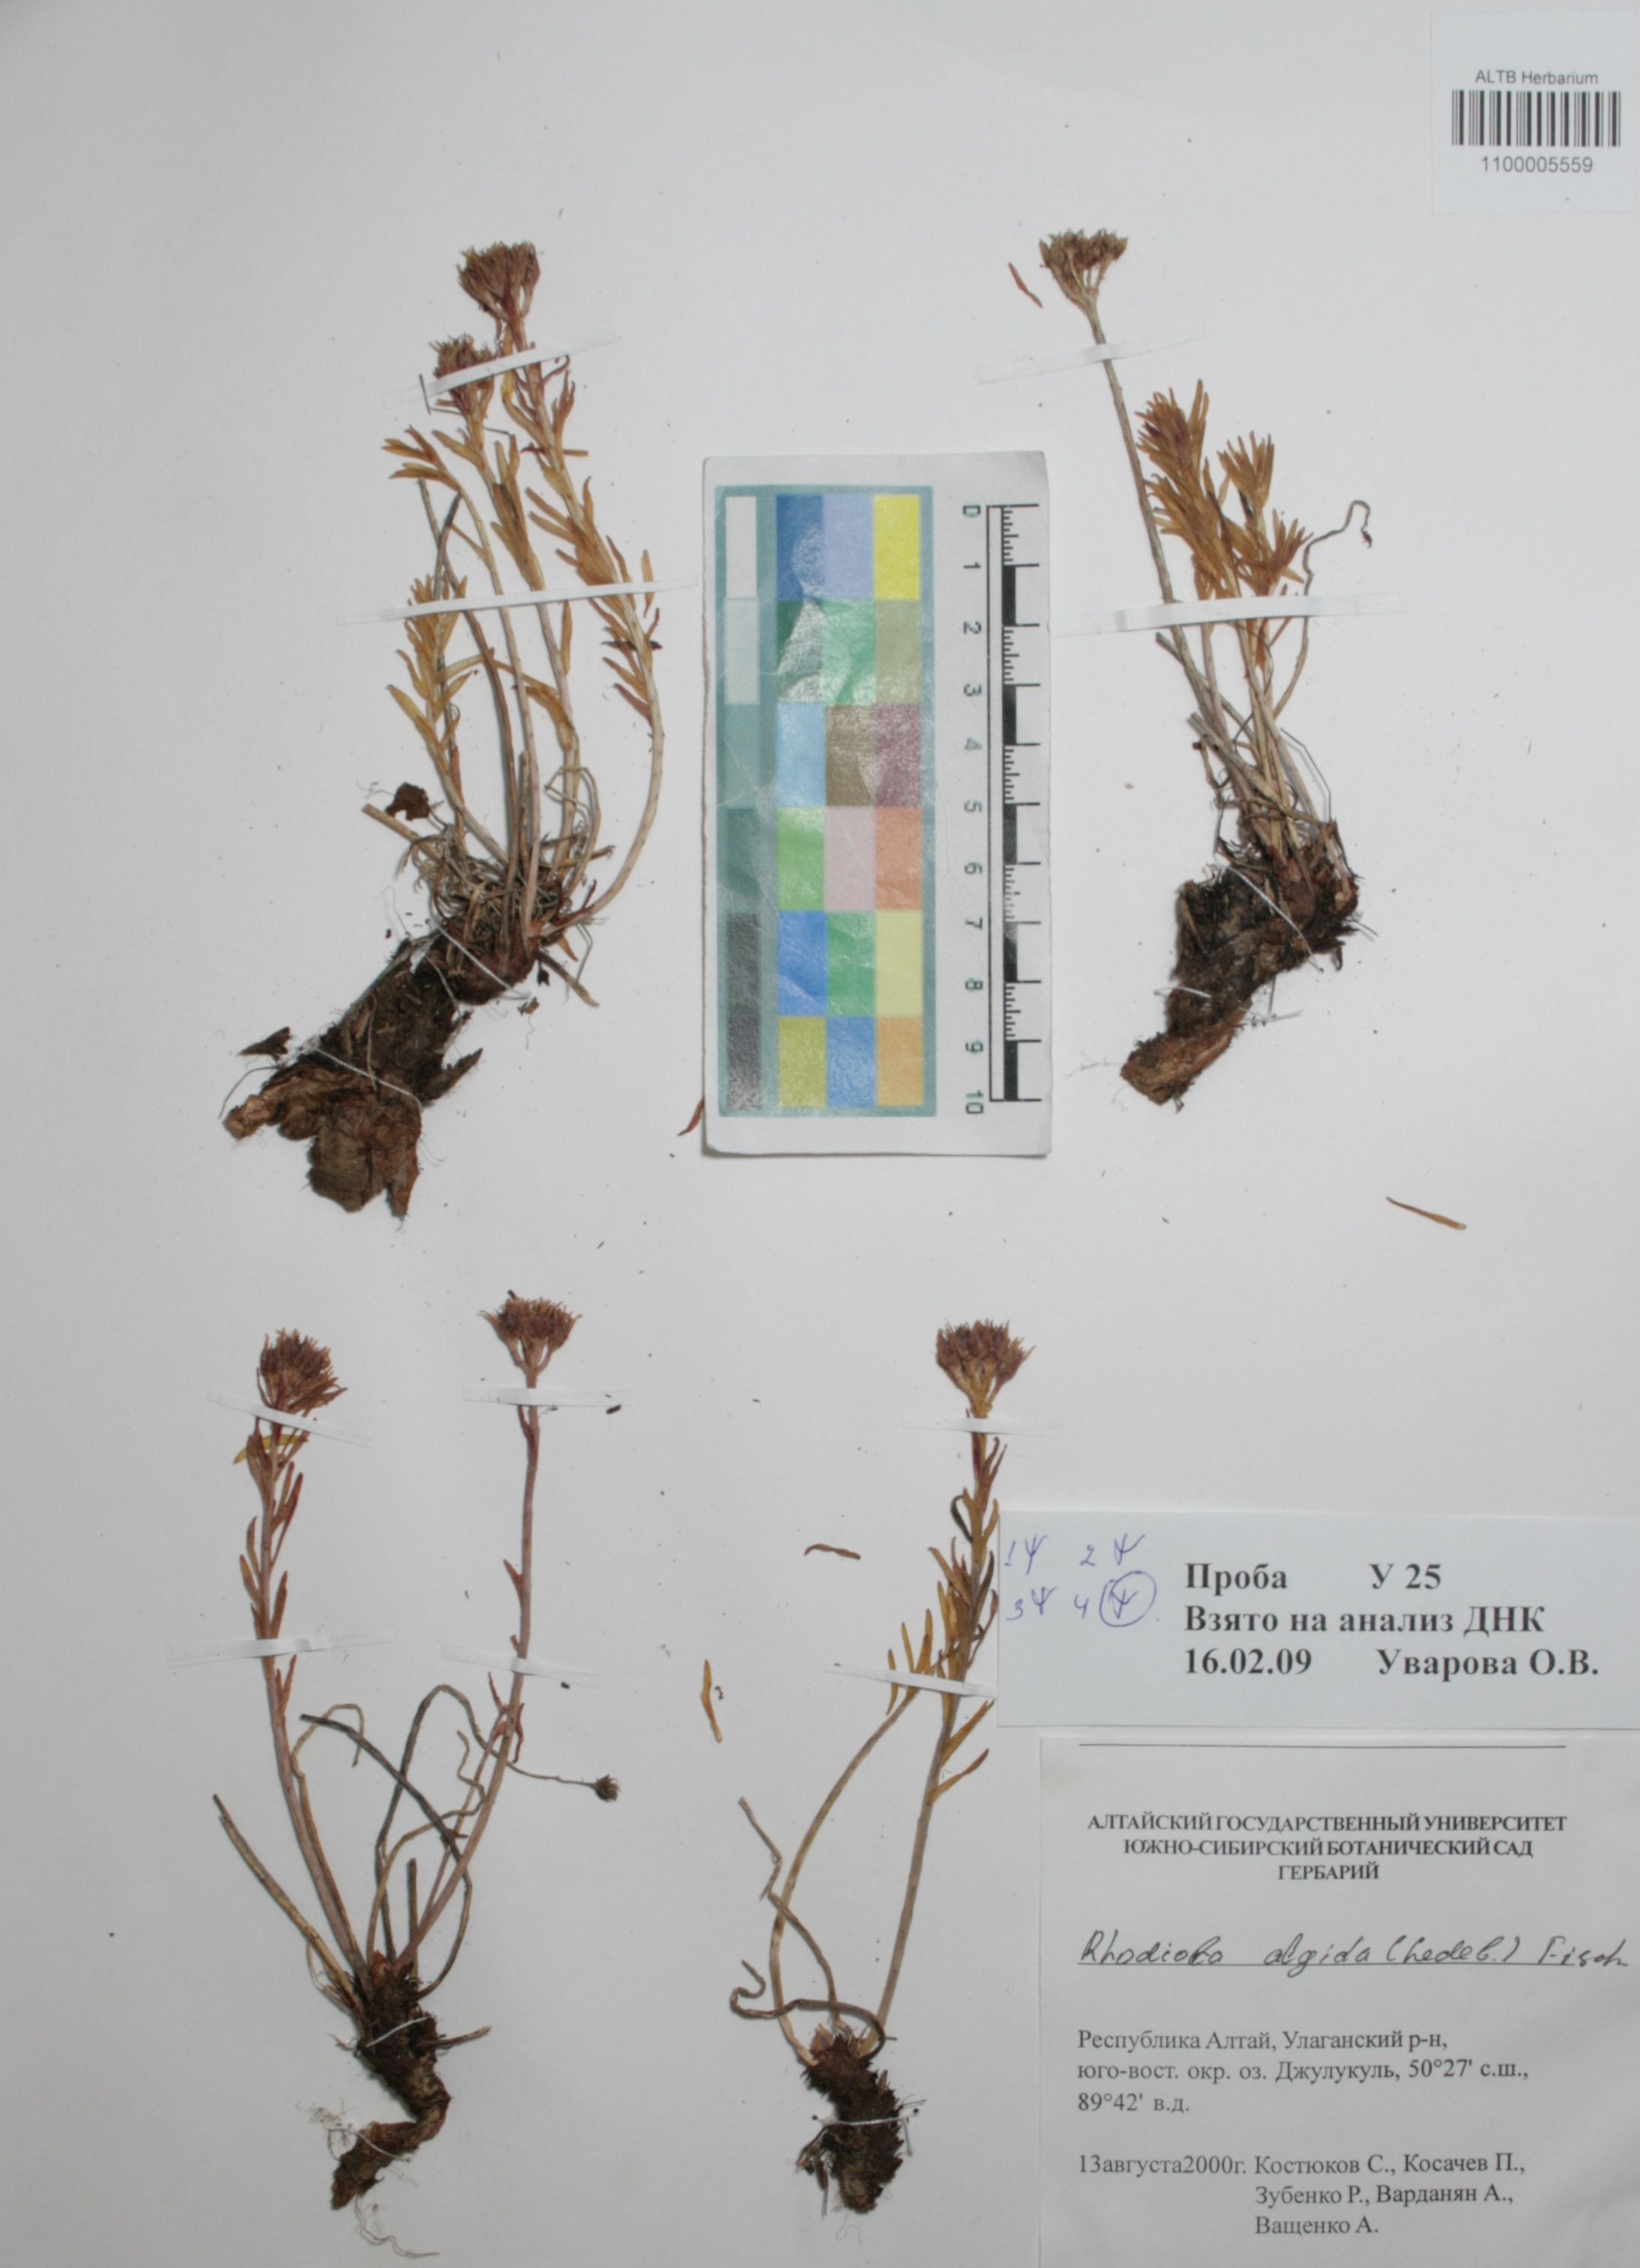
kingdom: Plantae
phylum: Tracheophyta
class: Magnoliopsida
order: Saxifragales
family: Crassulaceae
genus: Rhodiola
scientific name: Rhodiola algida
